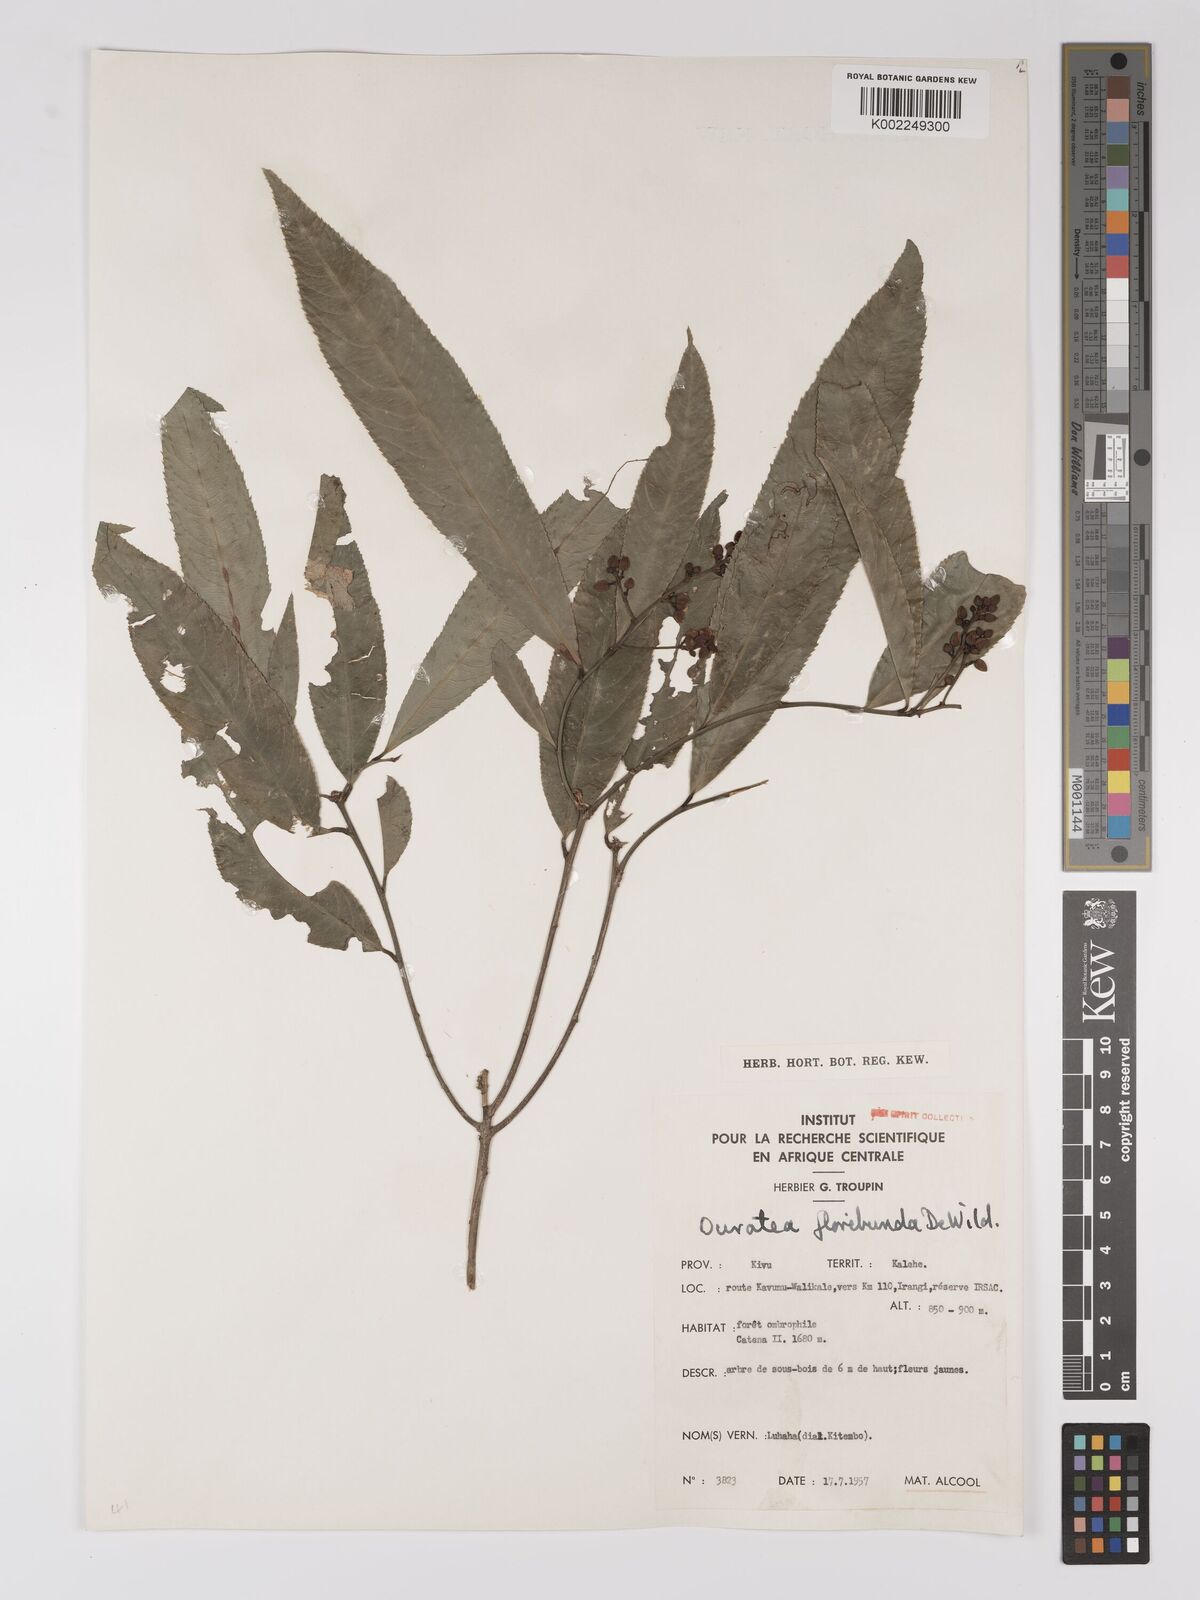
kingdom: Plantae
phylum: Tracheophyta
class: Magnoliopsida
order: Malpighiales
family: Ochnaceae
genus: Campylospermum
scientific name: Campylospermum likimiense
